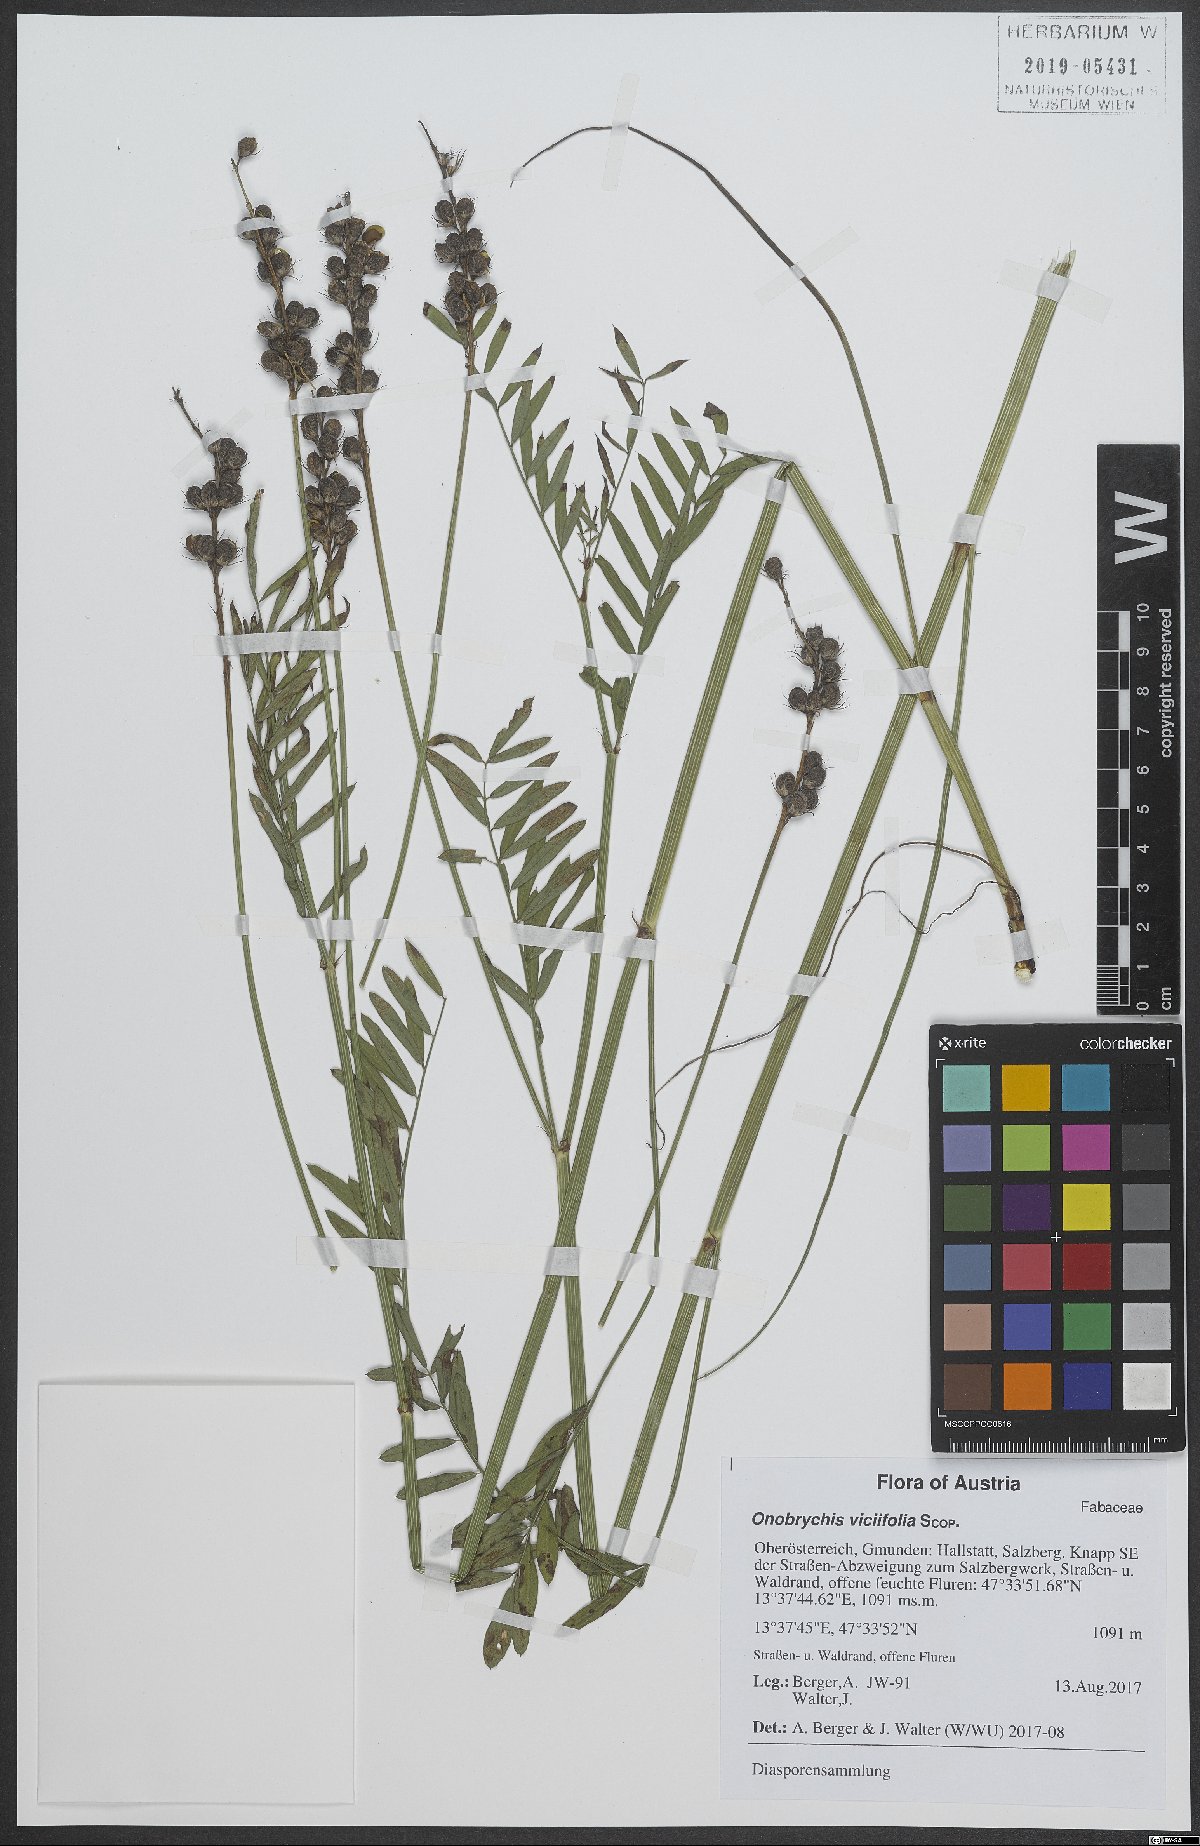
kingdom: Plantae
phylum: Tracheophyta
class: Magnoliopsida
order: Fabales
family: Fabaceae
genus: Onobrychis
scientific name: Onobrychis viciifolia
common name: Sainfoin
